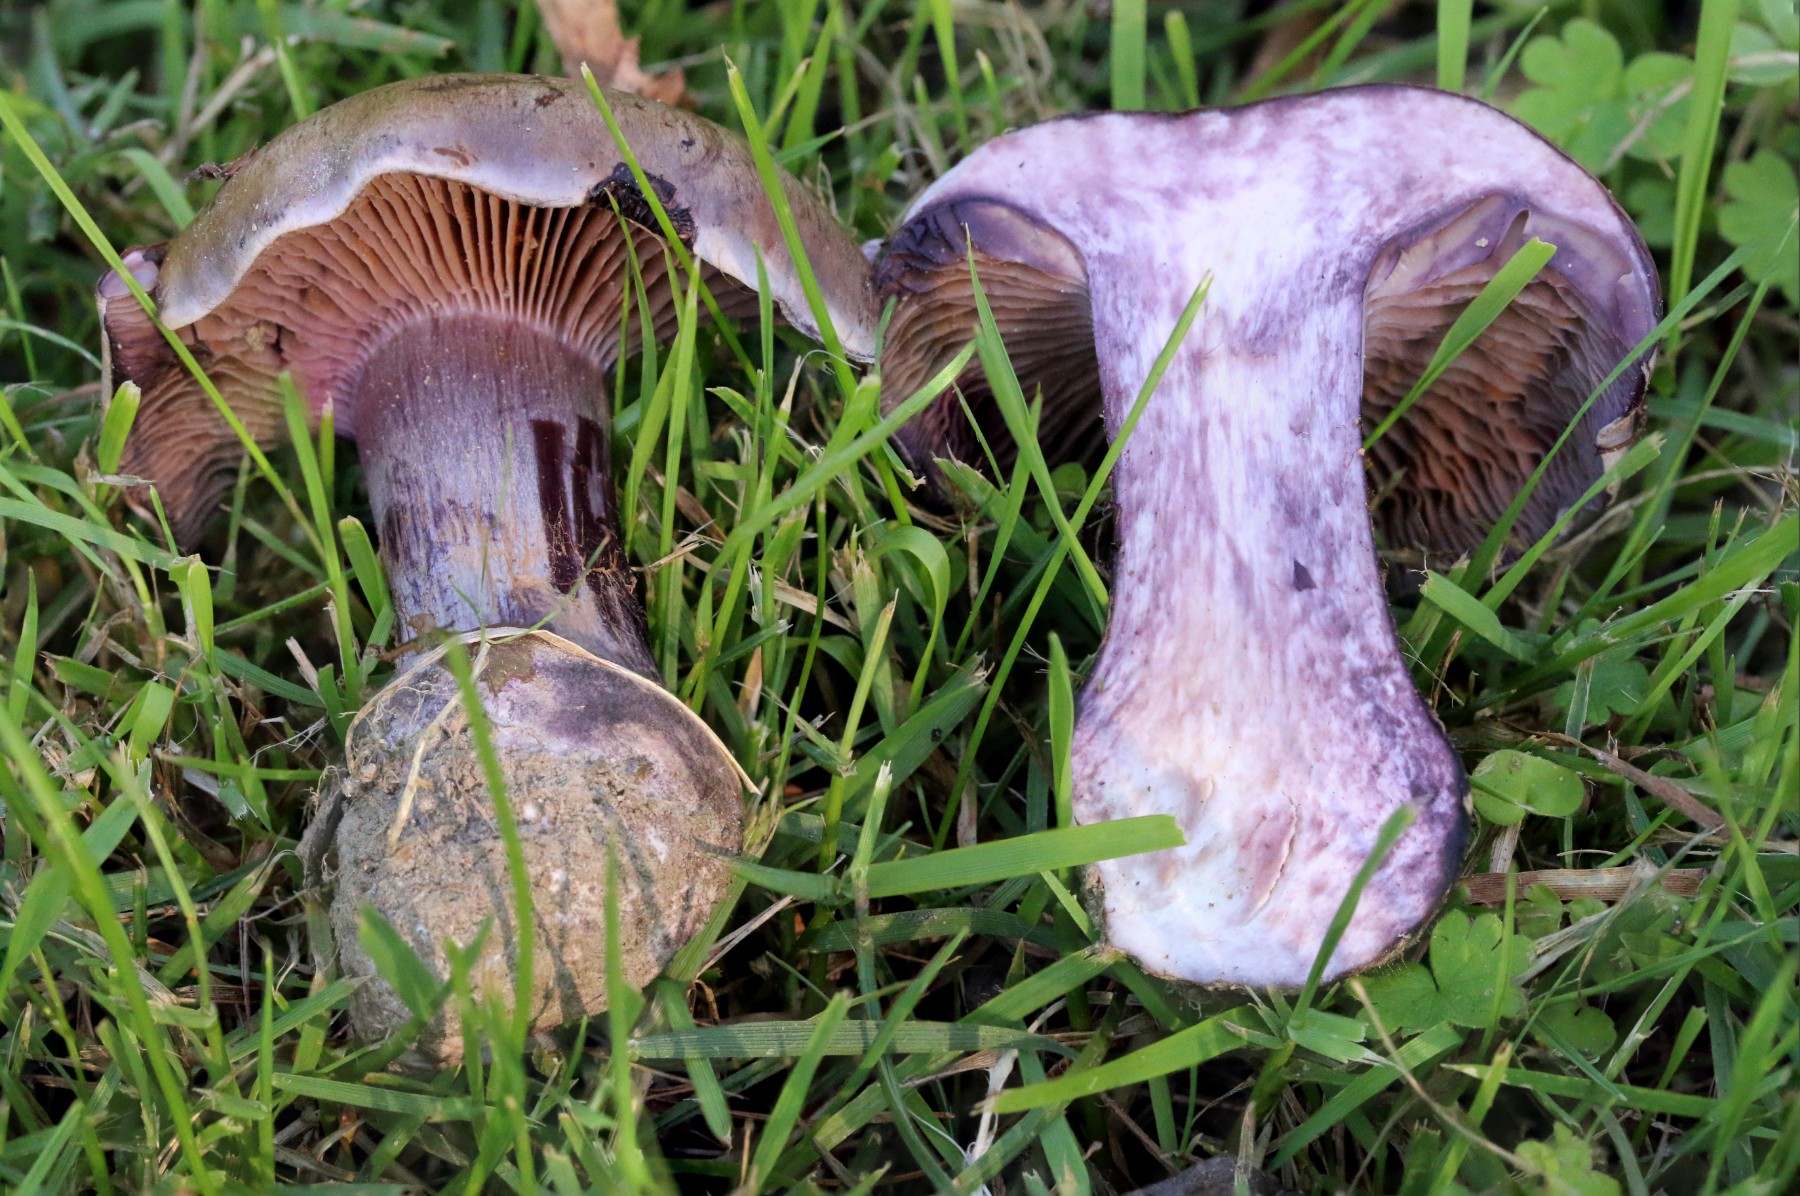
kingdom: Fungi
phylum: Basidiomycota
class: Agaricomycetes
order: Agaricales
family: Cortinariaceae
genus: Thaxterogaster
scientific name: Thaxterogaster purpurascens
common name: purpurbrun slørhat
